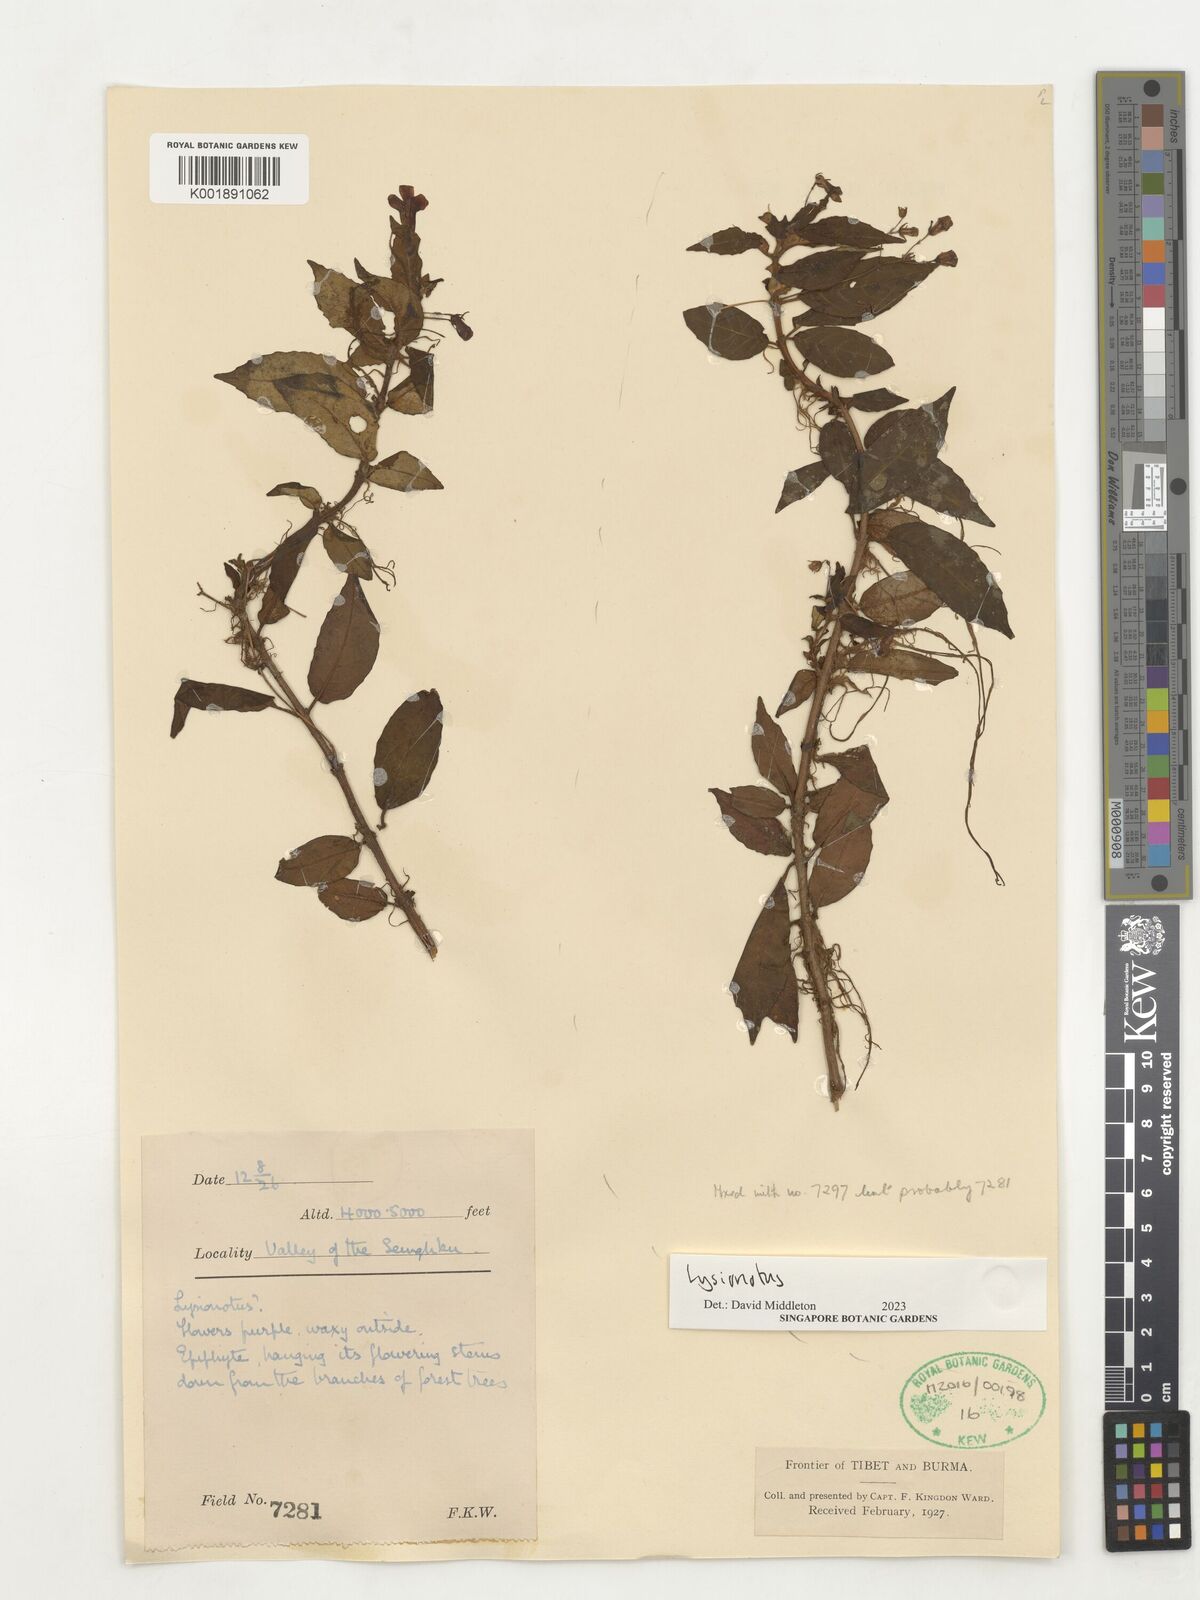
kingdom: Plantae
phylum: Tracheophyta
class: Magnoliopsida
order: Lamiales
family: Gesneriaceae
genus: Lysionotus
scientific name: Lysionotus
